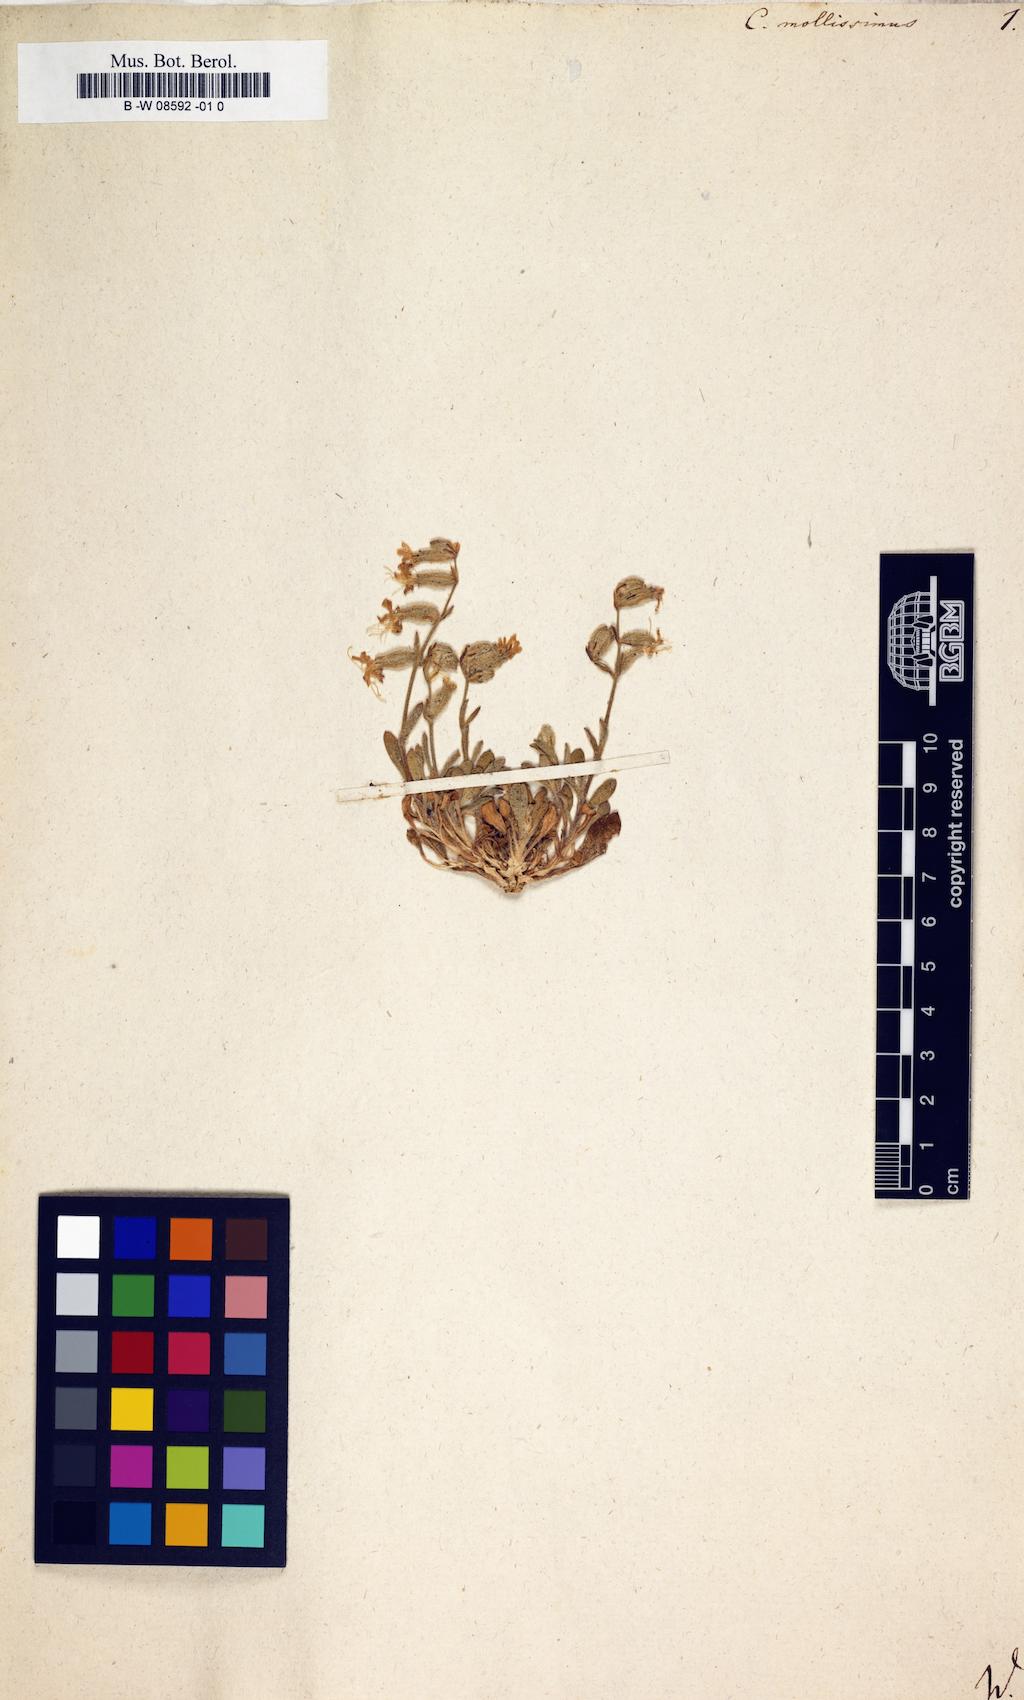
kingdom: Plantae
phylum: Tracheophyta
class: Magnoliopsida
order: Caryophyllales
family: Caryophyllaceae
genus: Silene
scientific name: Silene
